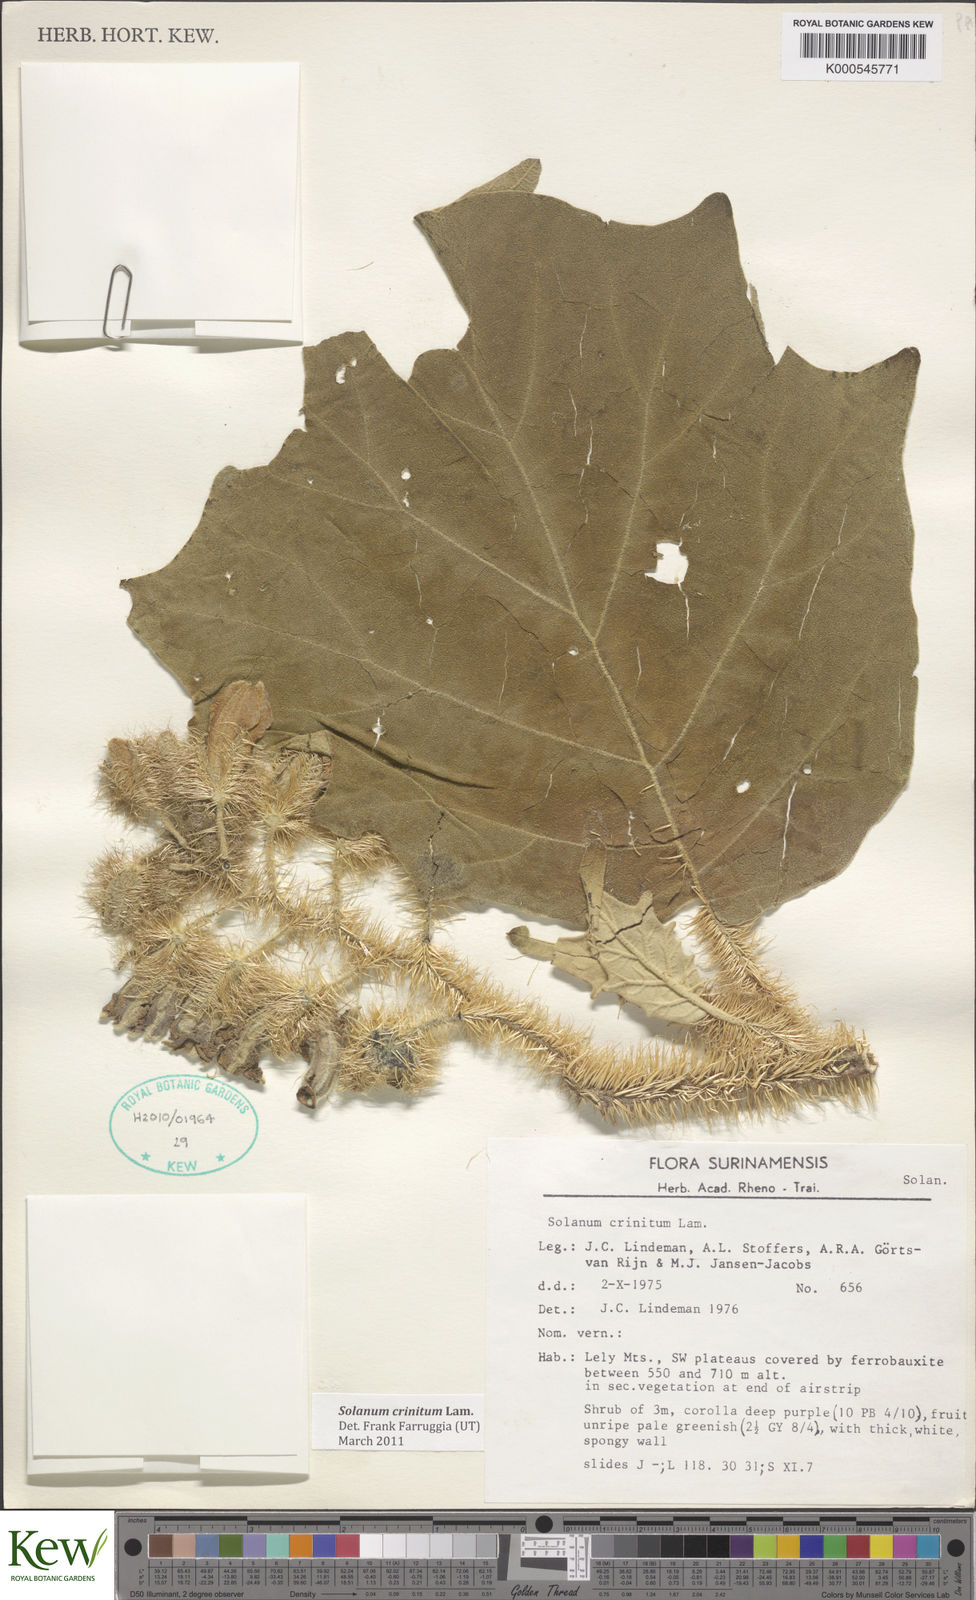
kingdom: Plantae
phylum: Tracheophyta
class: Magnoliopsida
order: Solanales
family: Solanaceae
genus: Solanum
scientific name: Solanum crinitum
